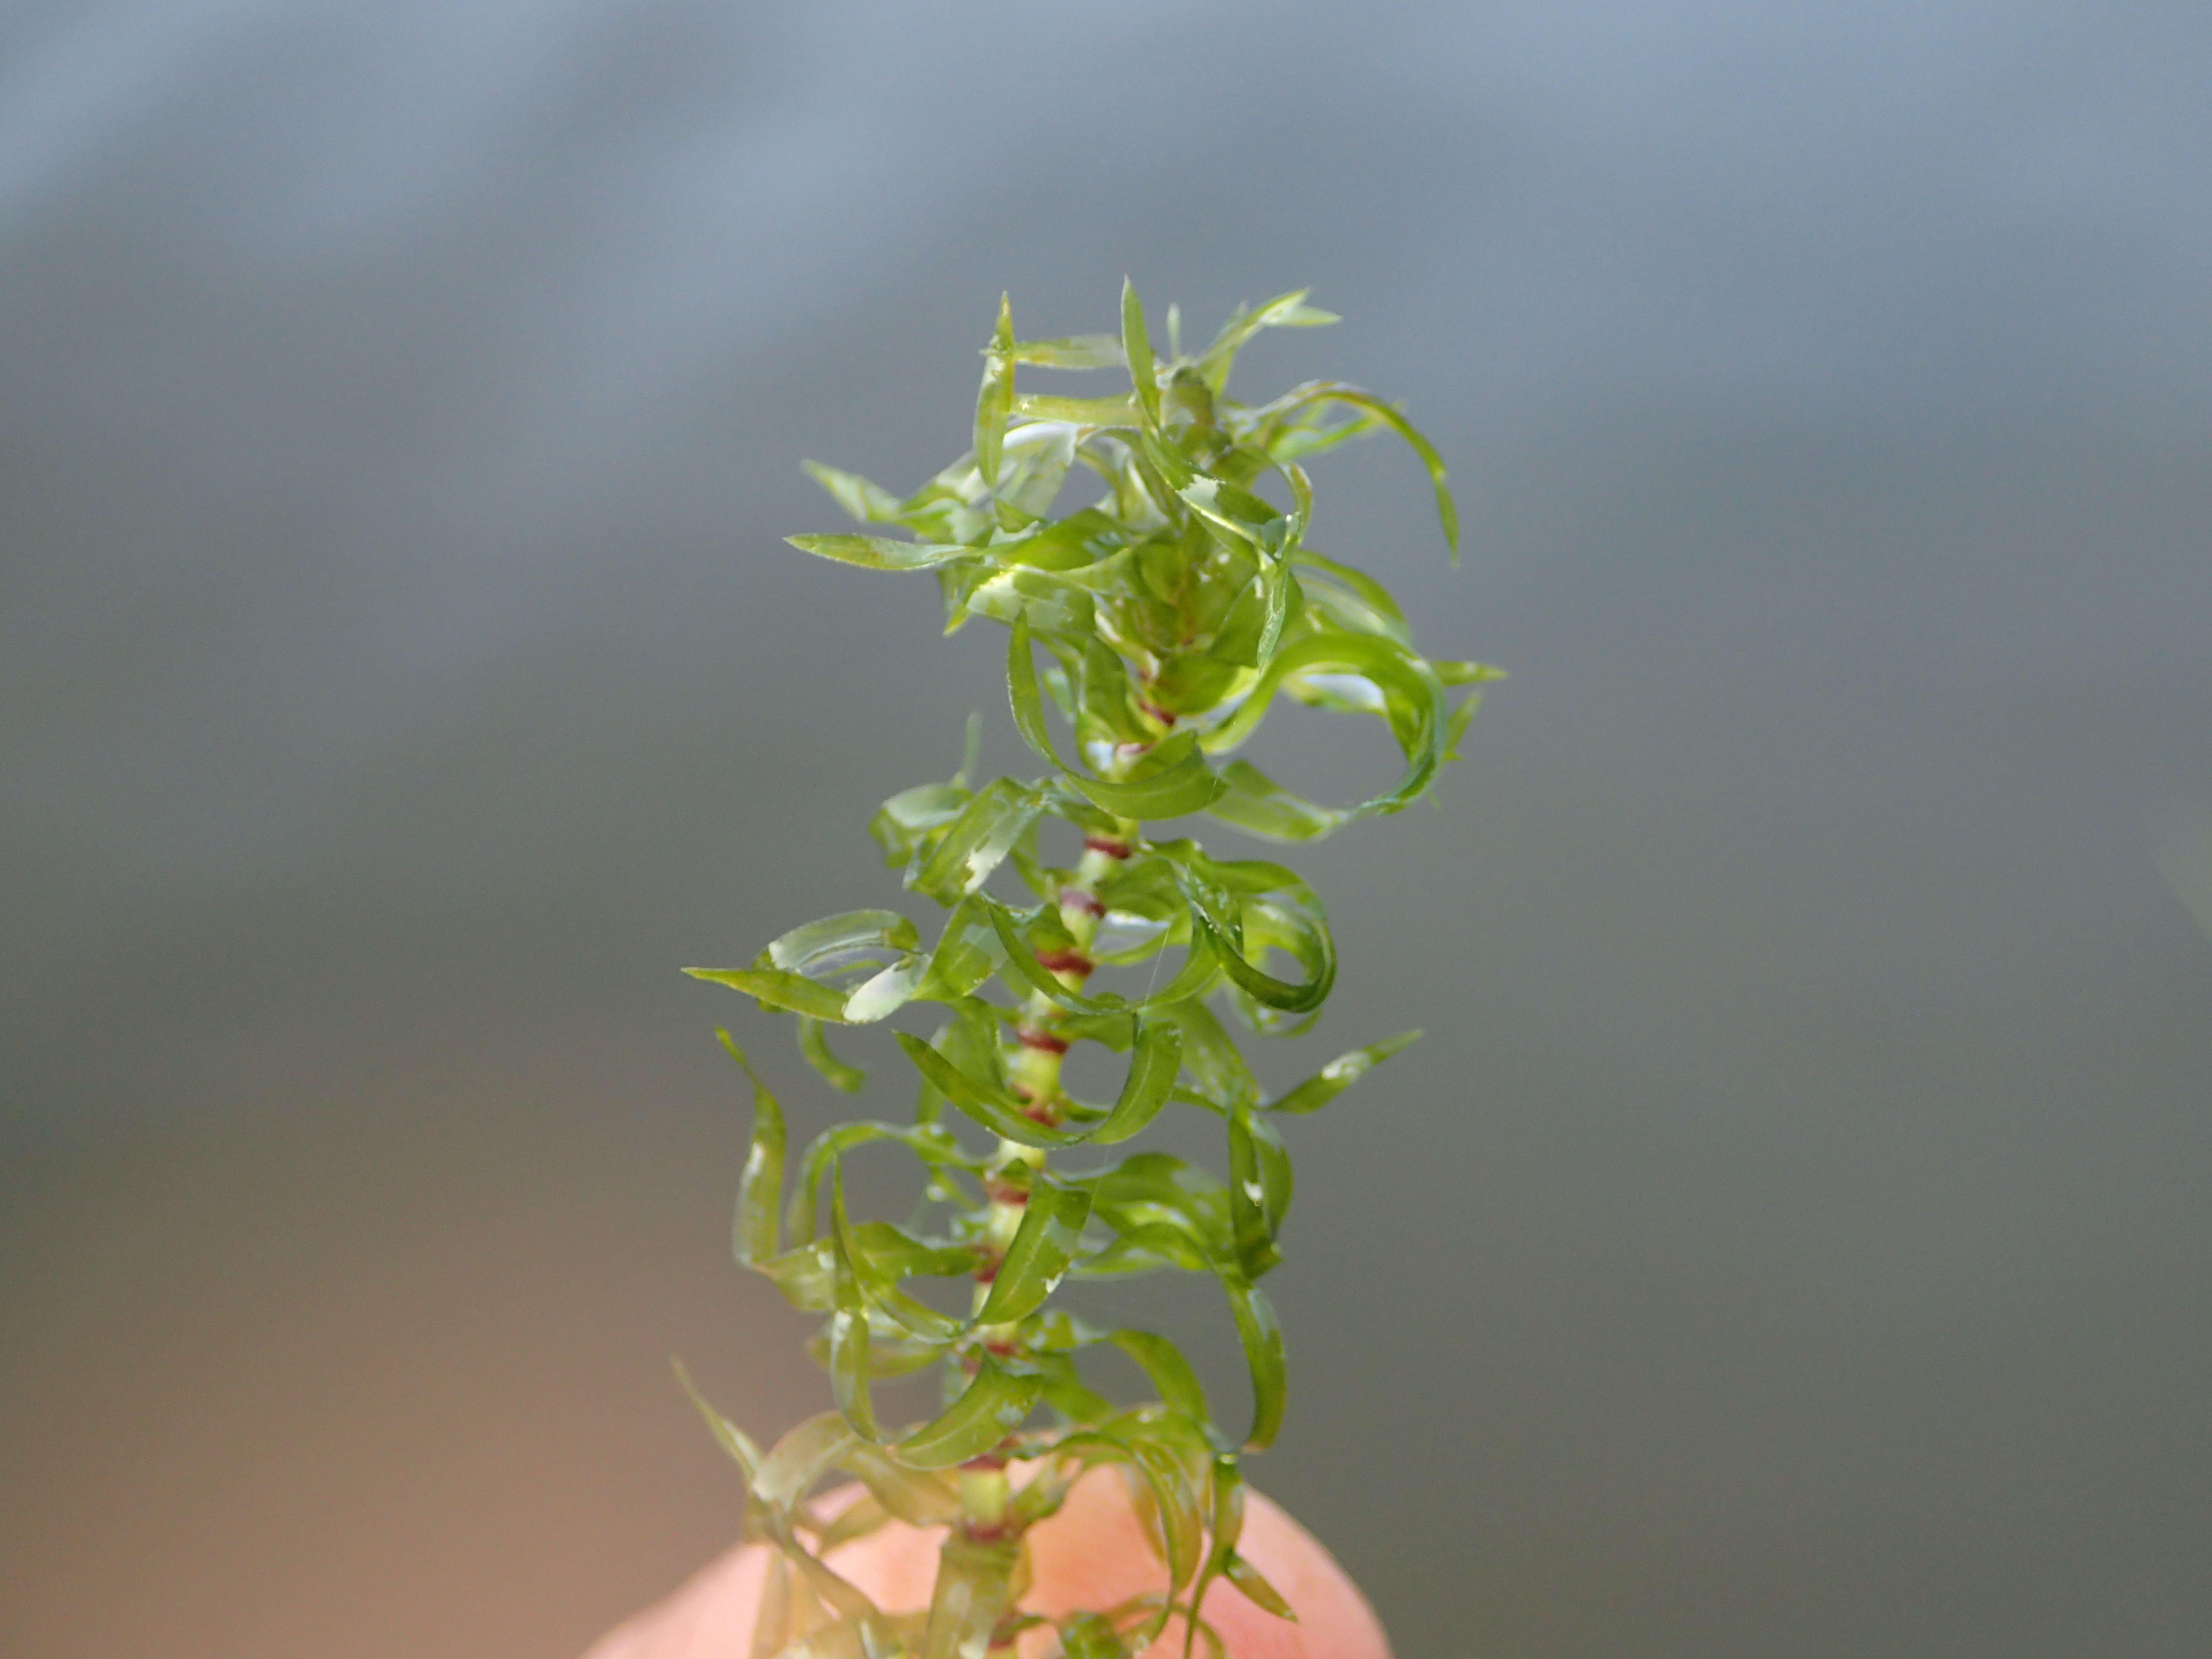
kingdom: Plantae
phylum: Tracheophyta
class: Liliopsida
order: Alismatales
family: Hydrocharitaceae
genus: Elodea
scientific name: Elodea nuttallii
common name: Nuttall's waterweed
